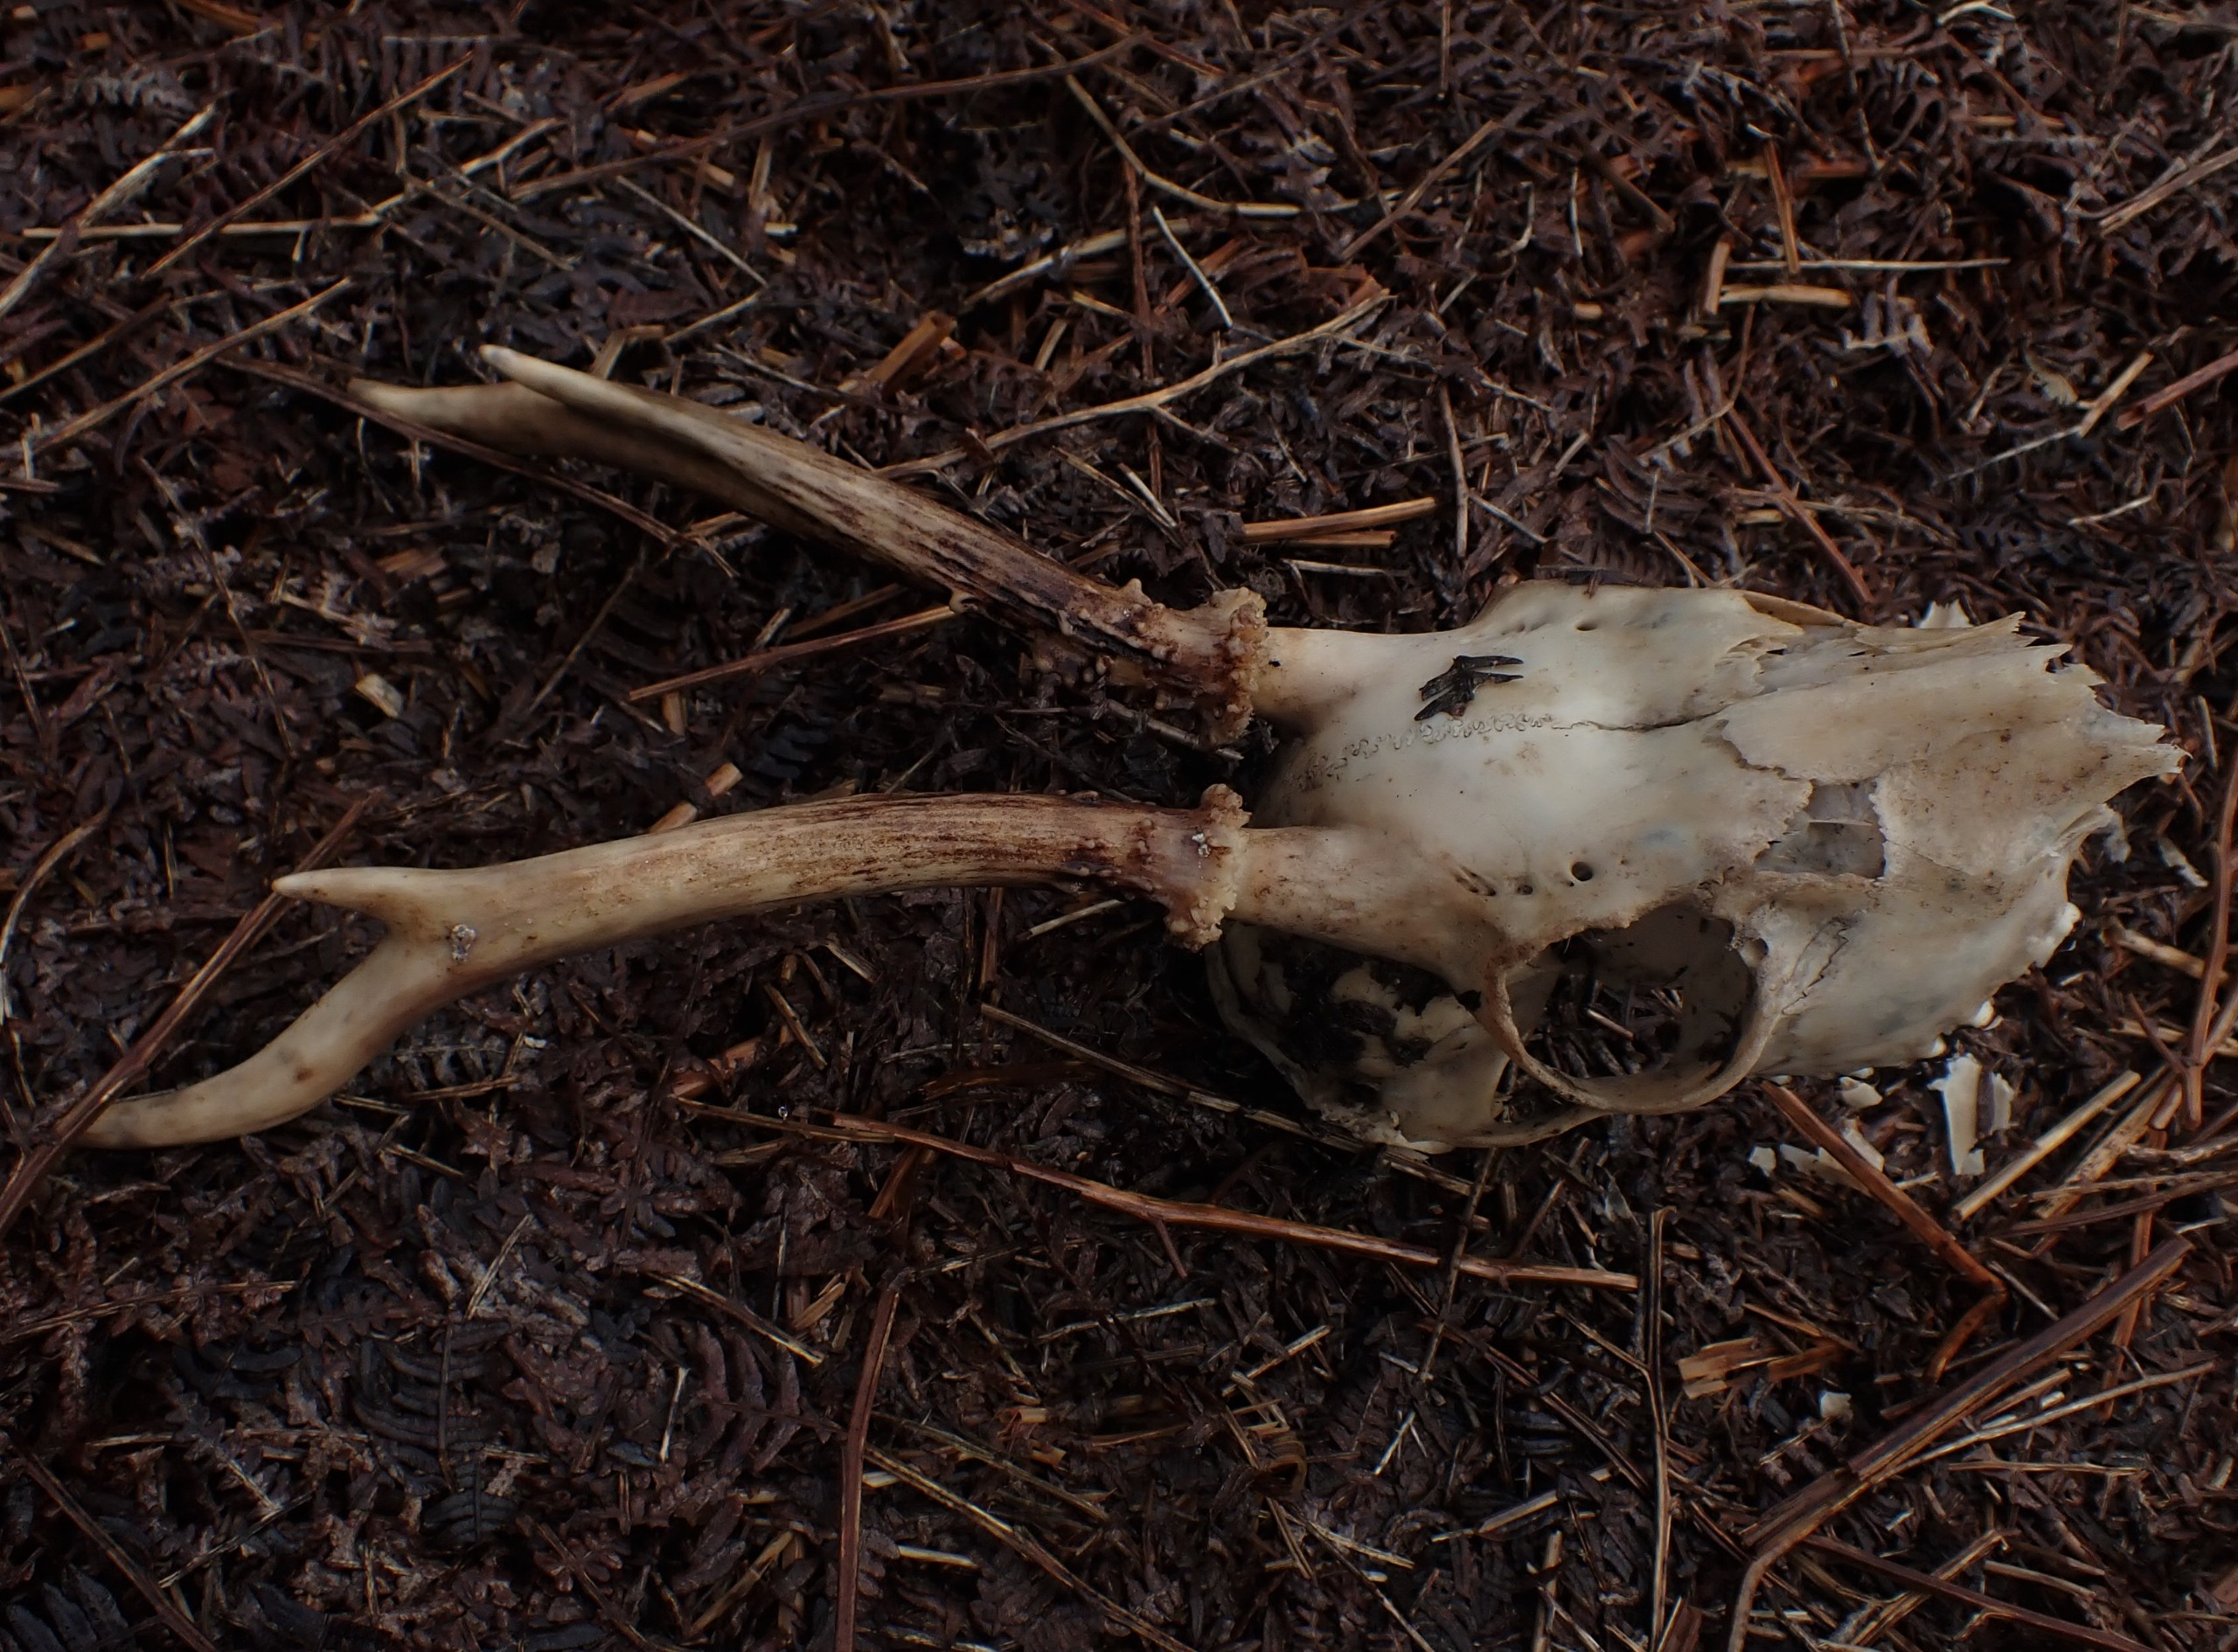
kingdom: Animalia
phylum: Chordata
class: Mammalia
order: Artiodactyla
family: Cervidae
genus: Capreolus
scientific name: Capreolus capreolus
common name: Rådyr
